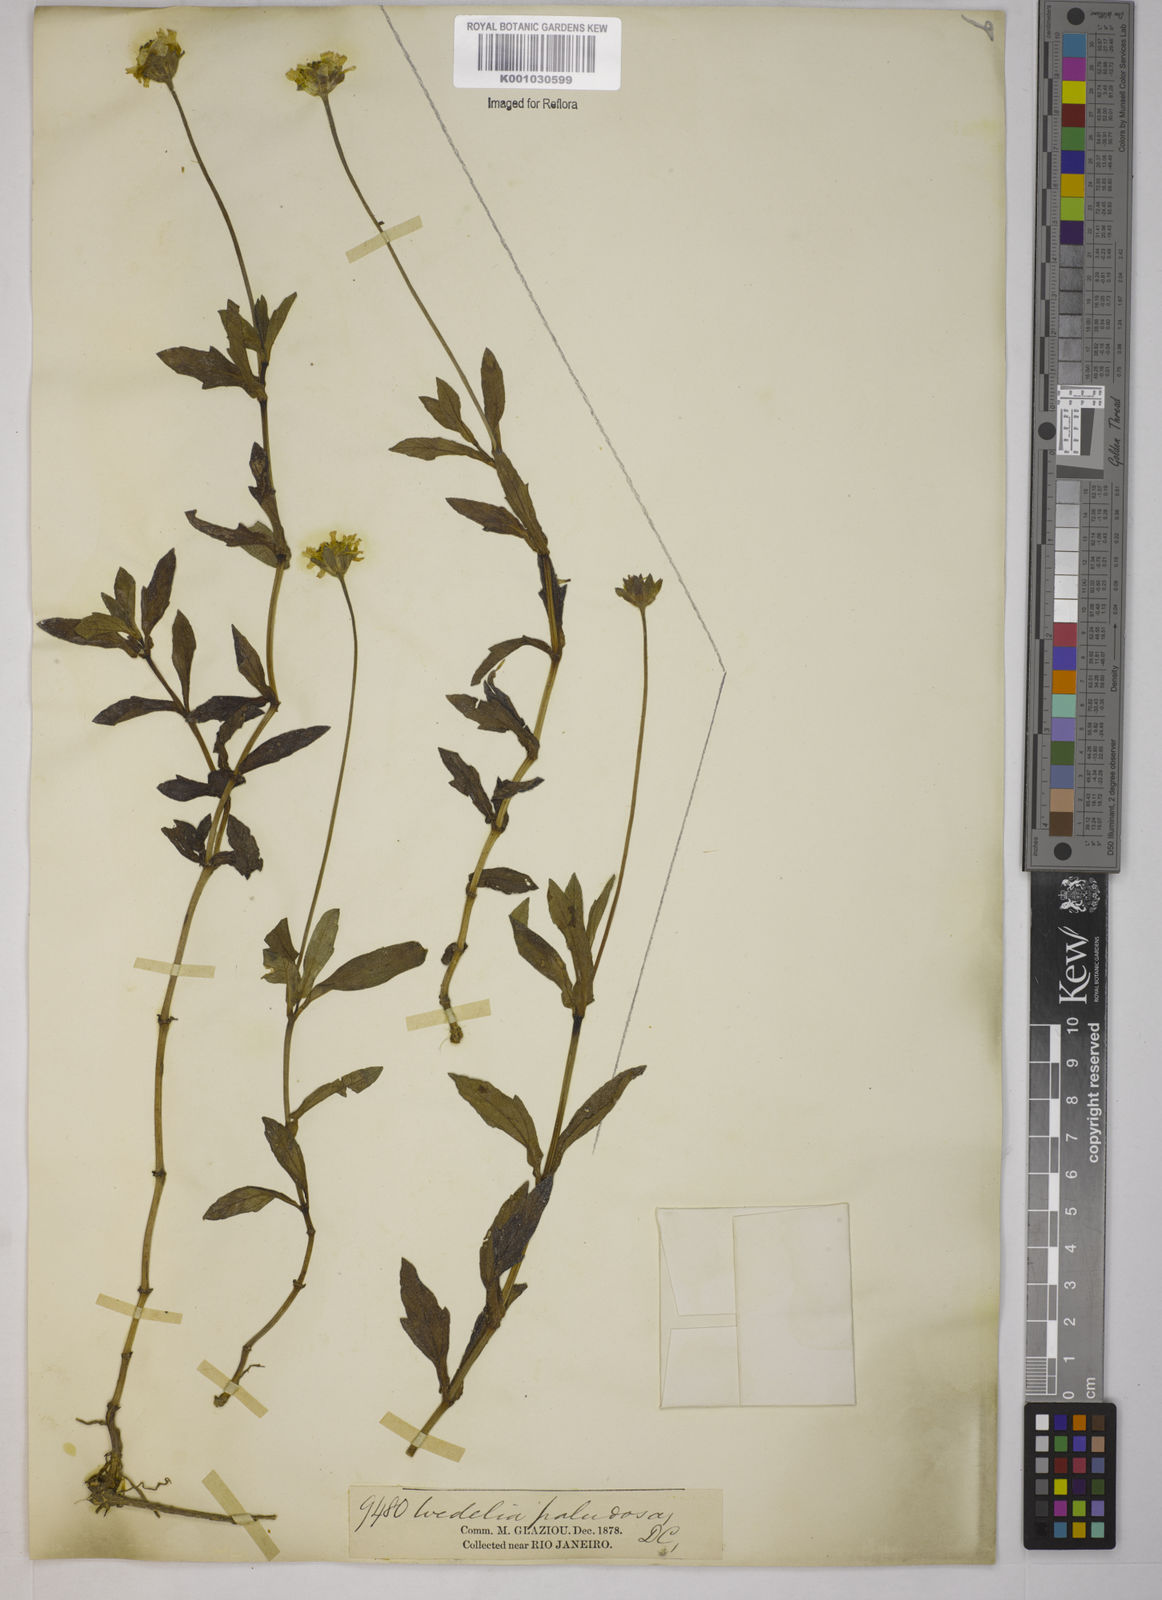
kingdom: Plantae
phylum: Tracheophyta
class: Magnoliopsida
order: Asterales
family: Asteraceae
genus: Sphagneticola
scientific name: Sphagneticola trilobata
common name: Bay biscayne creeping-oxeye
